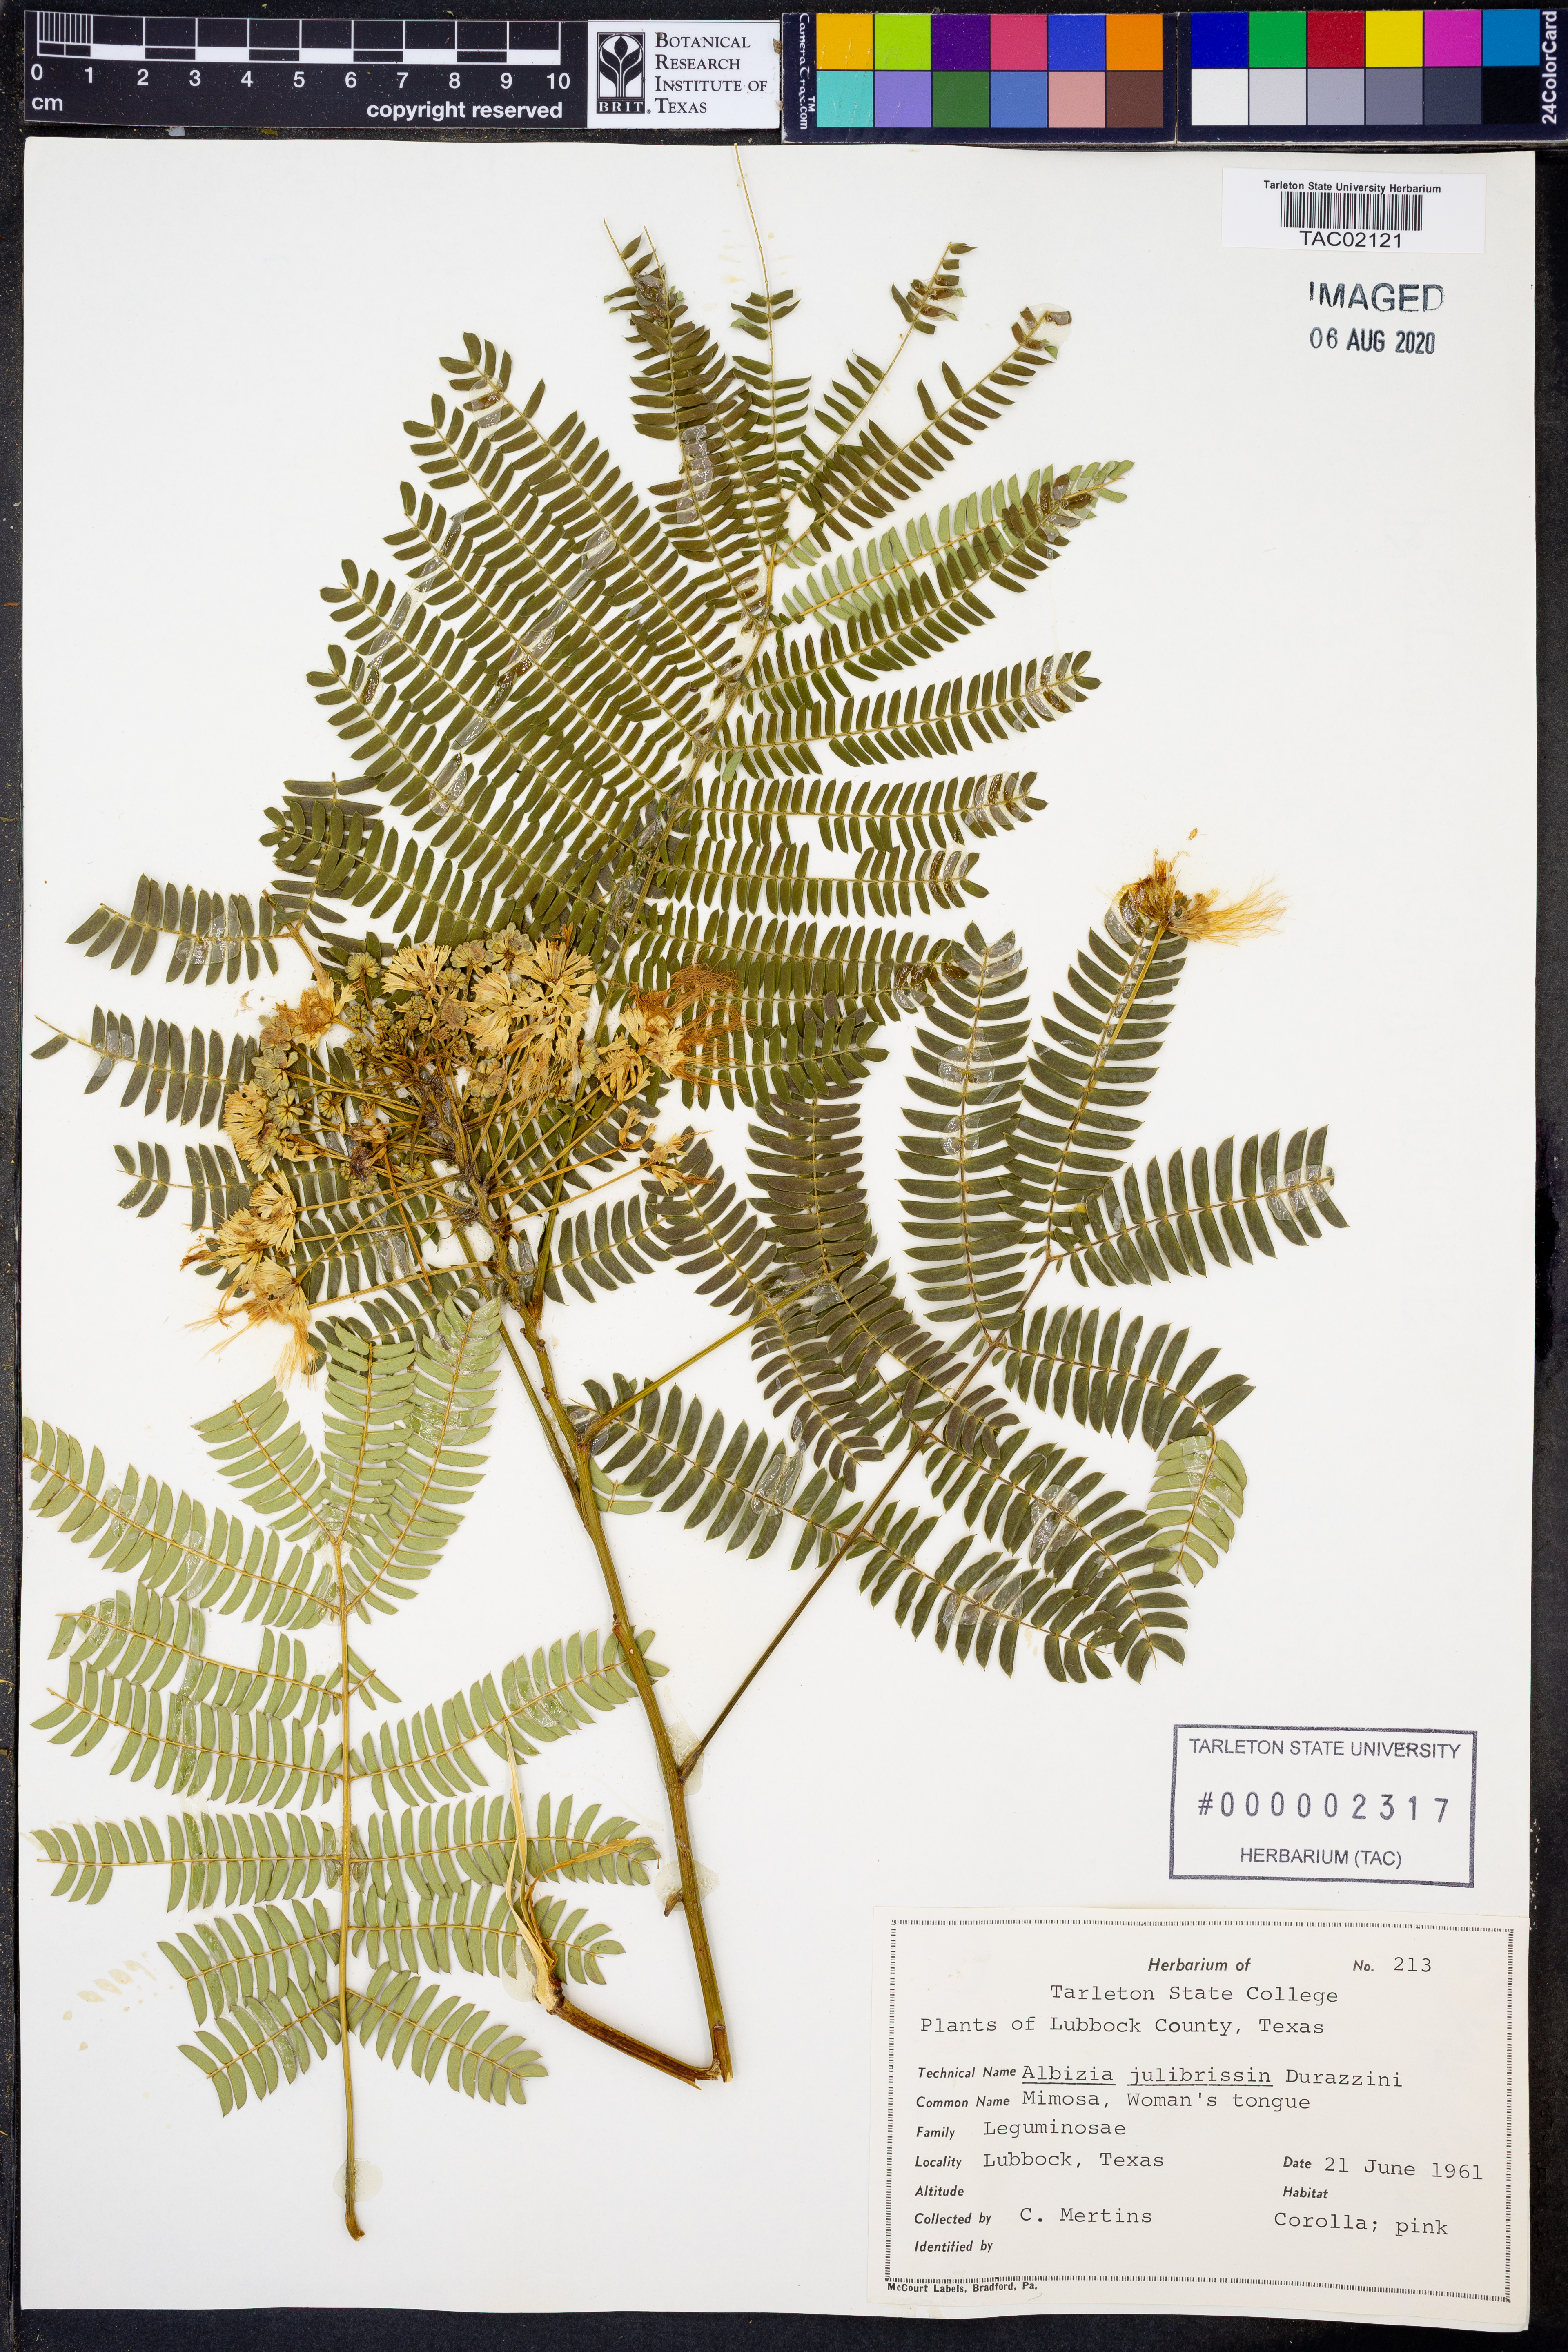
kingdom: Plantae
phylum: Tracheophyta
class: Magnoliopsida
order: Fabales
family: Fabaceae
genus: Albizia
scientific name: Albizia julibrissin
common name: Silktree
